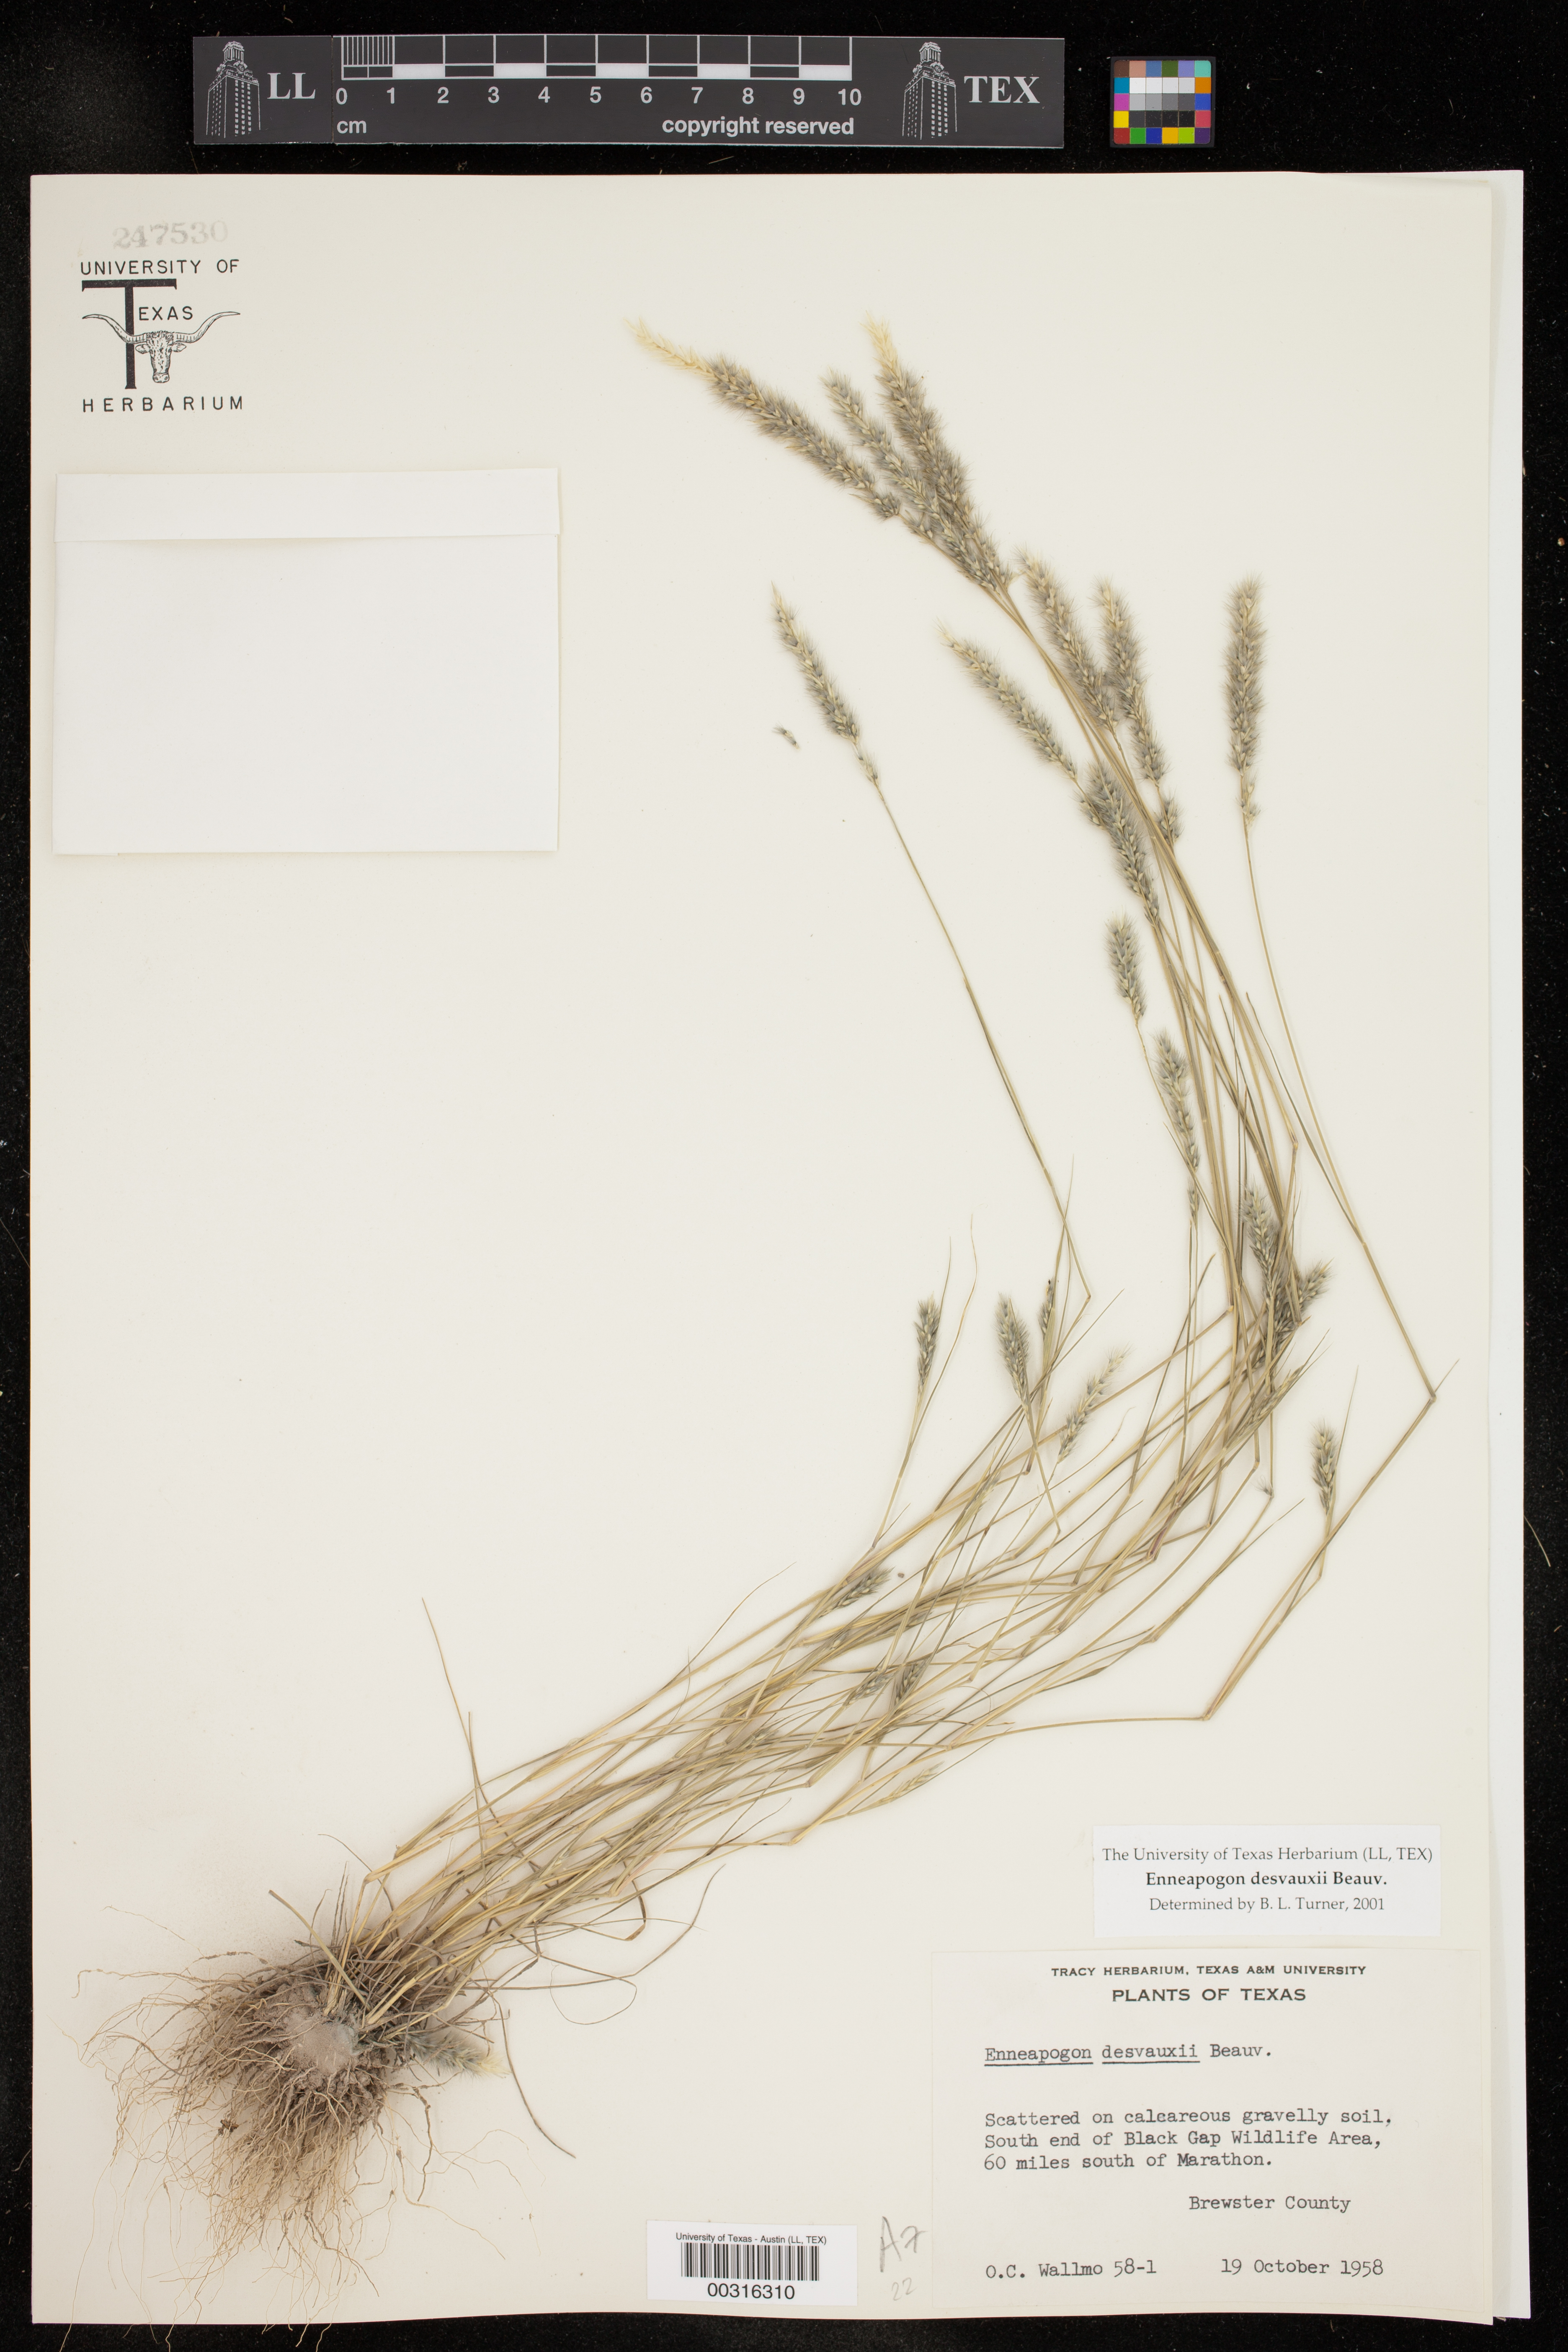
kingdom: Plantae
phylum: Tracheophyta
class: Liliopsida
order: Poales
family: Poaceae
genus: Enneapogon
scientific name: Enneapogon desvauxii
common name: Feather pappus grass
